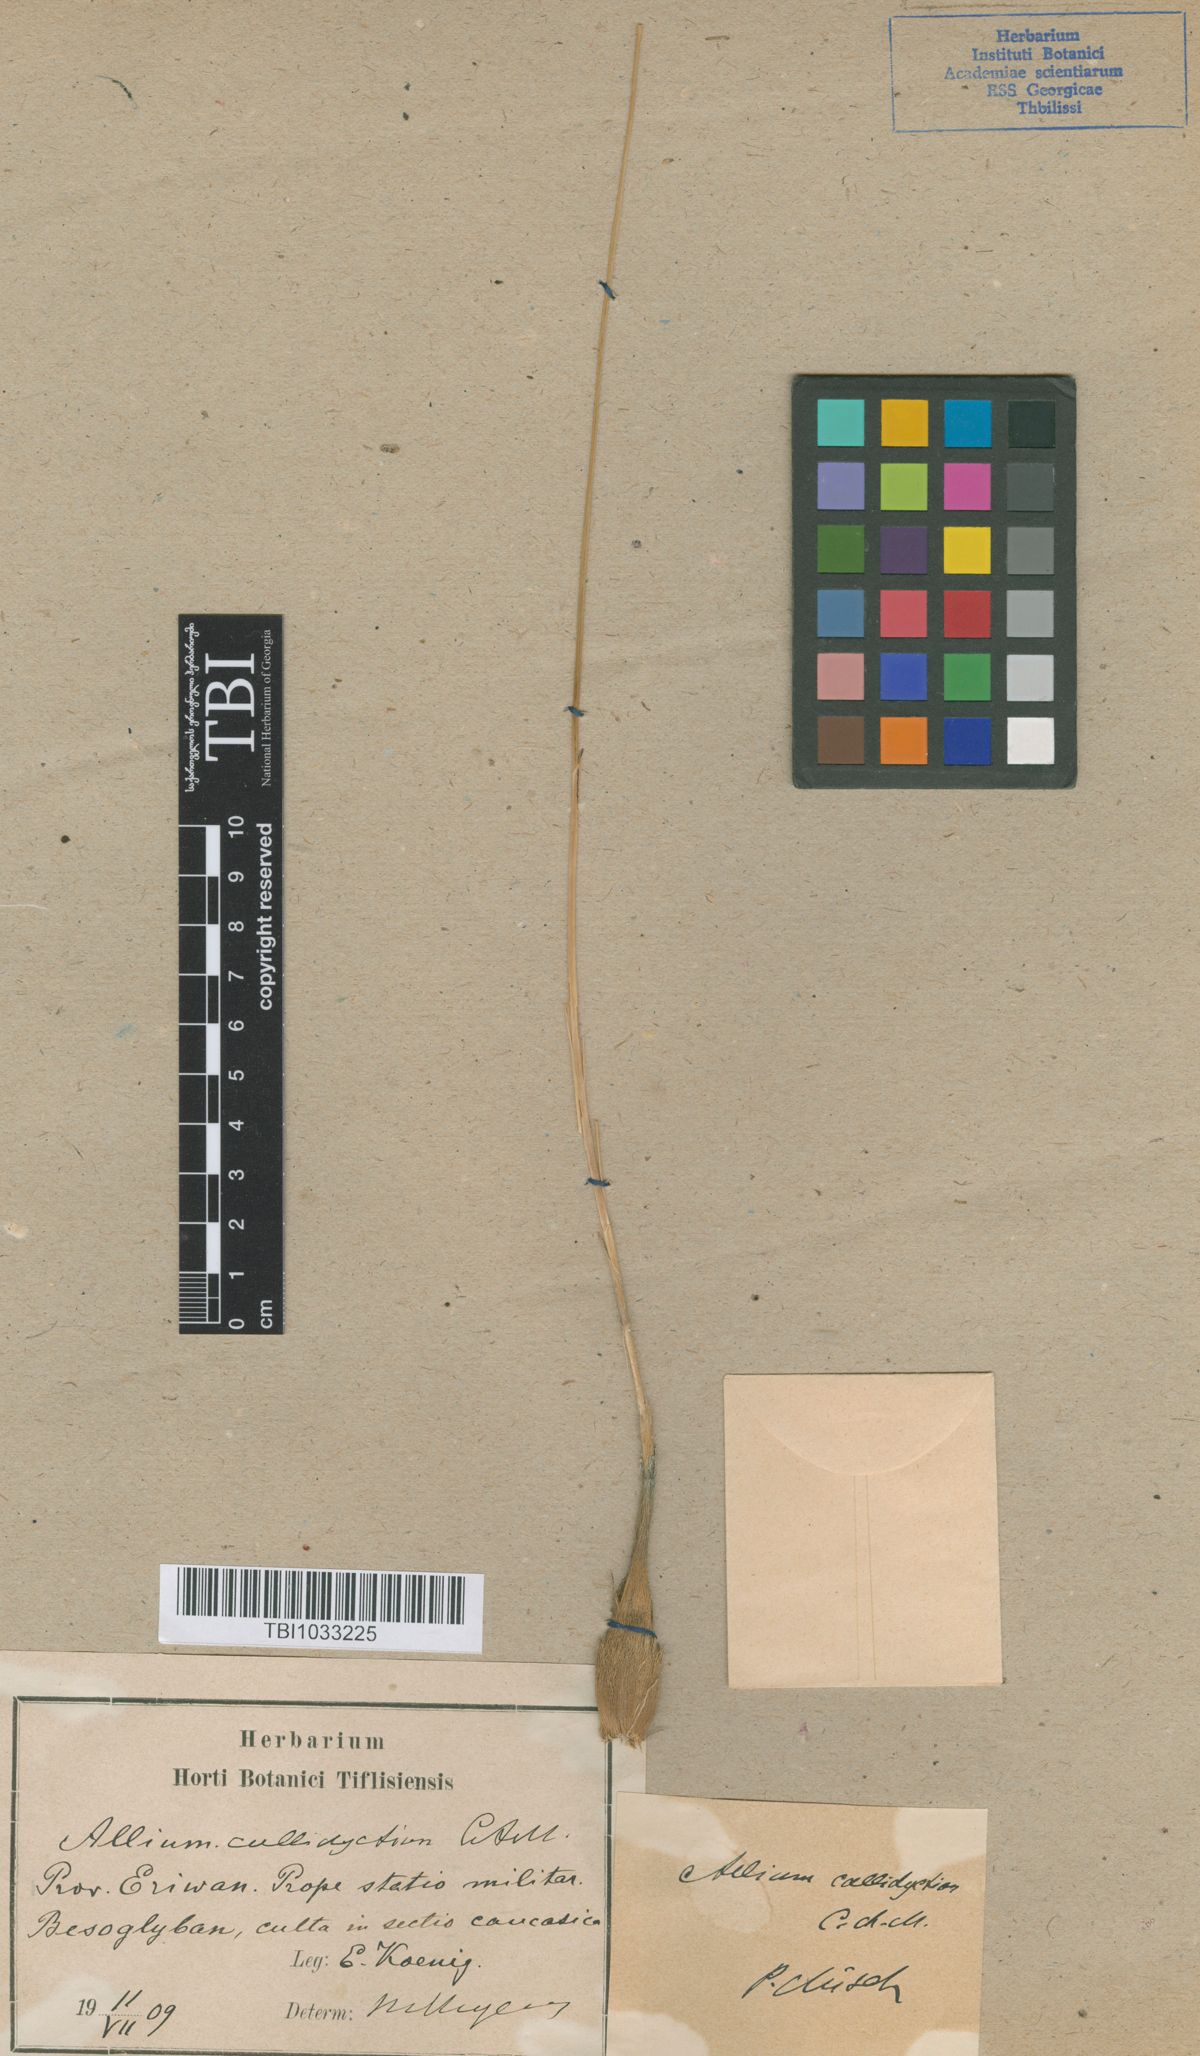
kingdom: Plantae
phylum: Tracheophyta
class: Liliopsida
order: Asparagales
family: Amaryllidaceae
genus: Allium
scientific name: Allium callidyction
